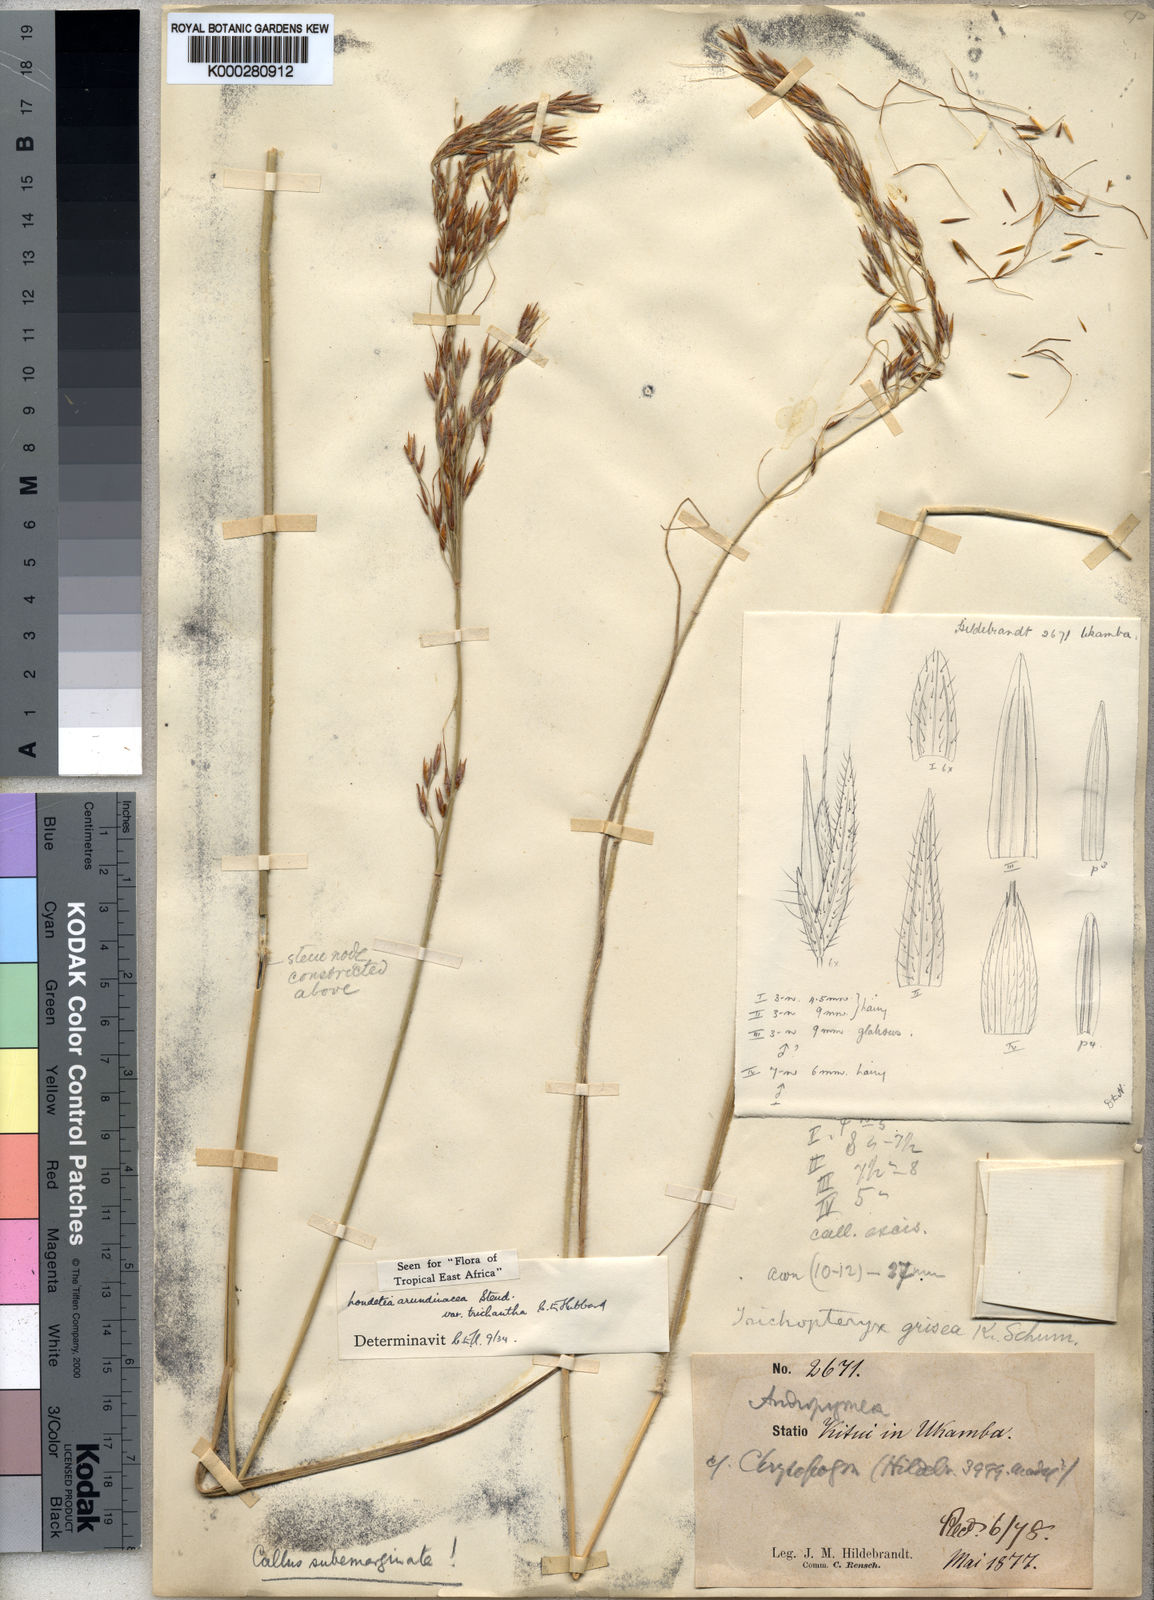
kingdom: Plantae
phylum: Tracheophyta
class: Liliopsida
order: Poales
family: Poaceae
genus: Loudetia
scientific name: Loudetia arundinacea
